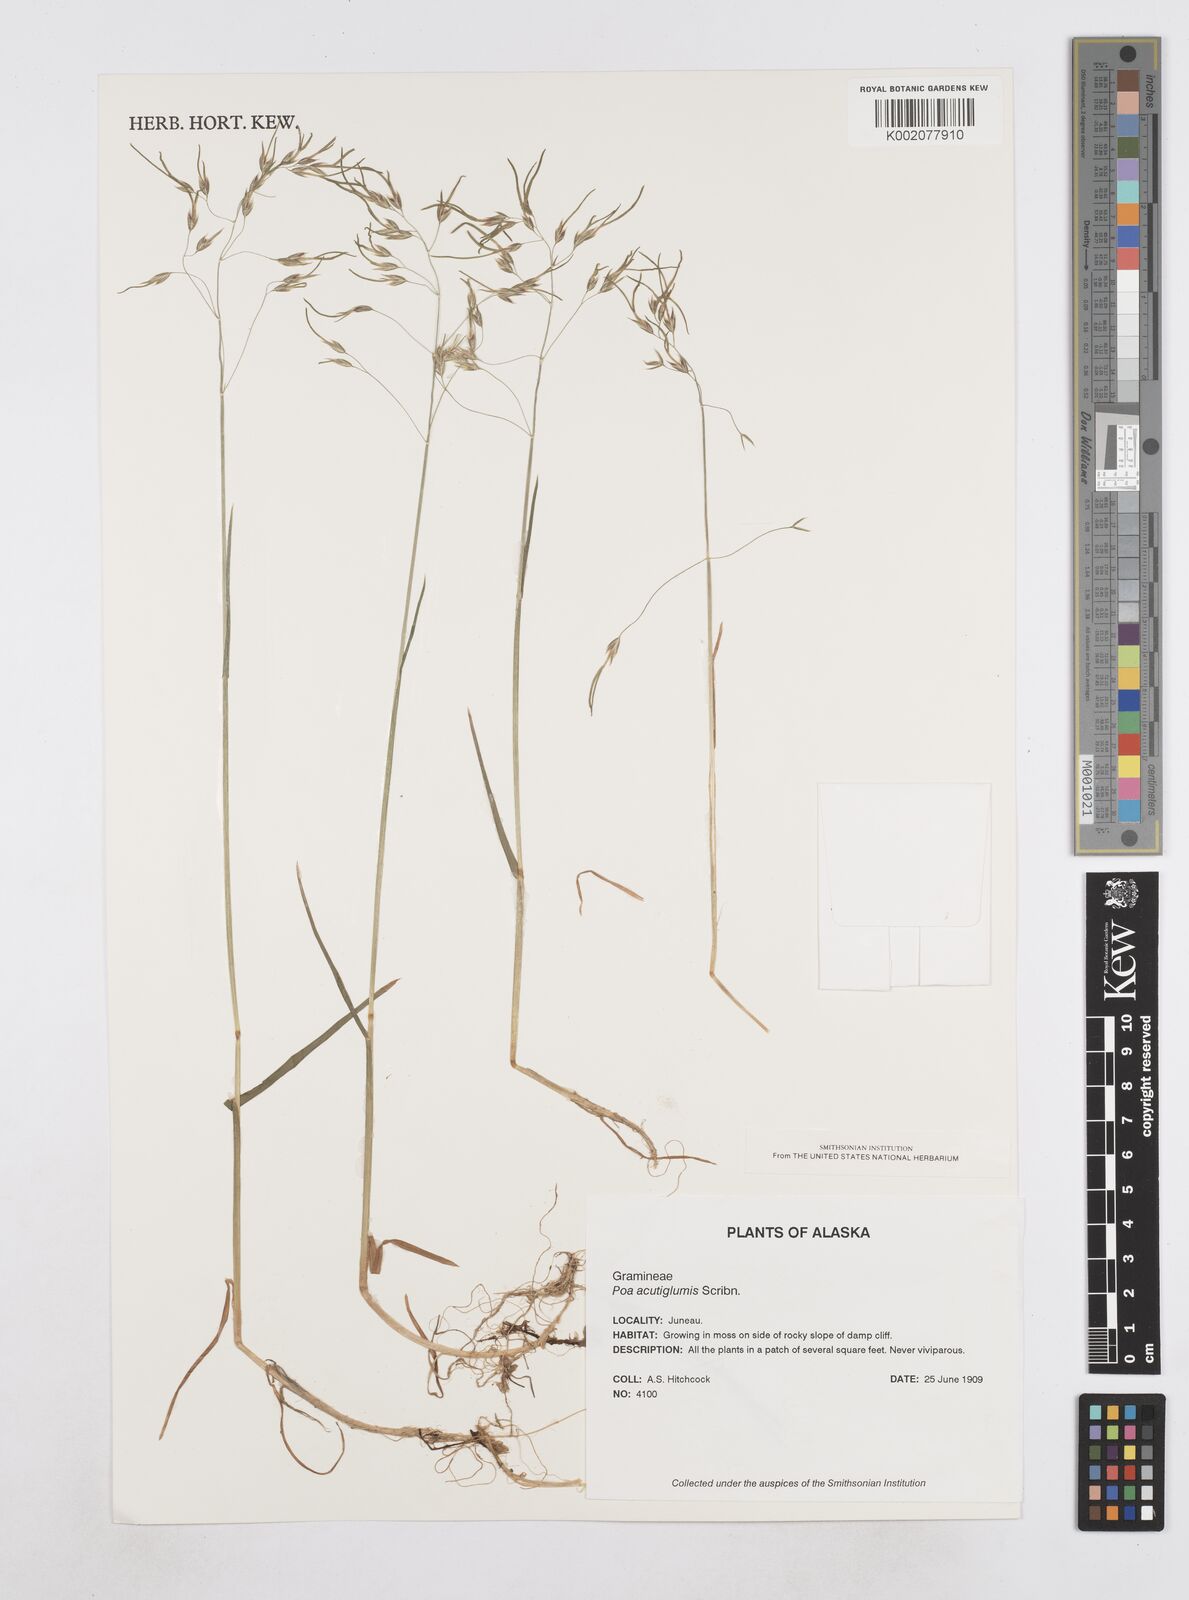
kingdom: Plantae
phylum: Tracheophyta
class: Liliopsida
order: Poales
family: Poaceae
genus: Poa
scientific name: Poa stenantha
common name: Narrow-flowered bluegrass
